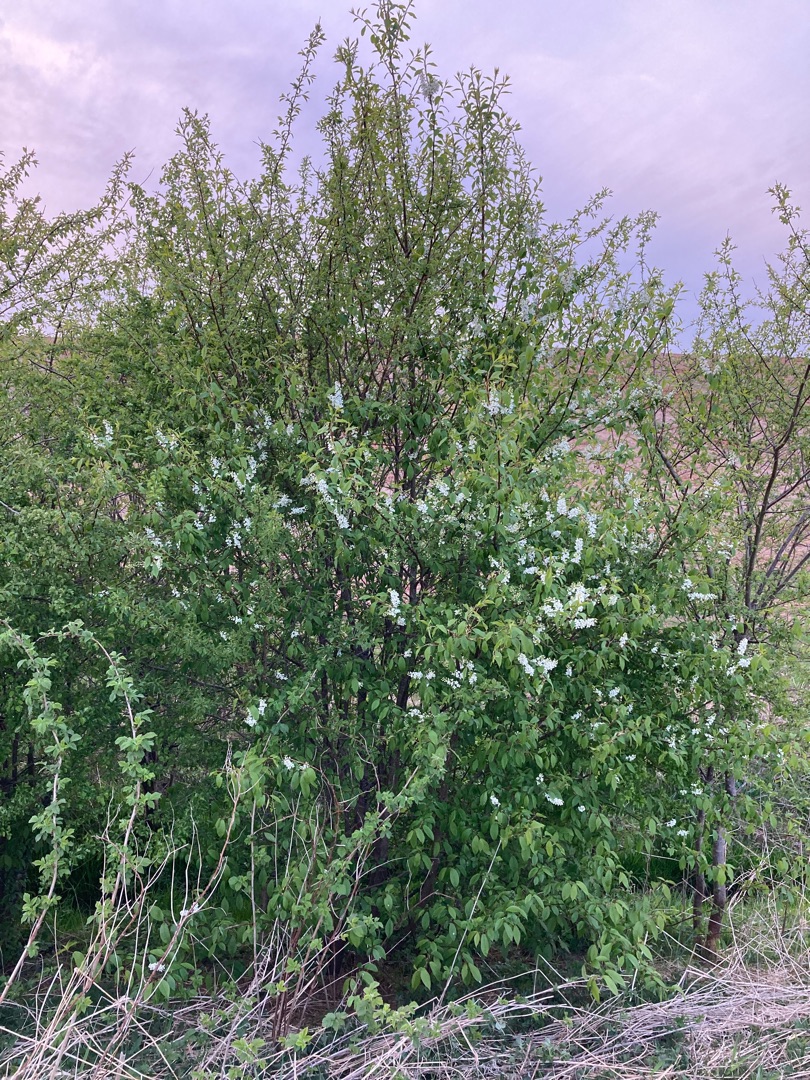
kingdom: Plantae
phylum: Tracheophyta
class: Magnoliopsida
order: Rosales
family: Rosaceae
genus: Prunus
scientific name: Prunus padus
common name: Almindelig hæg
